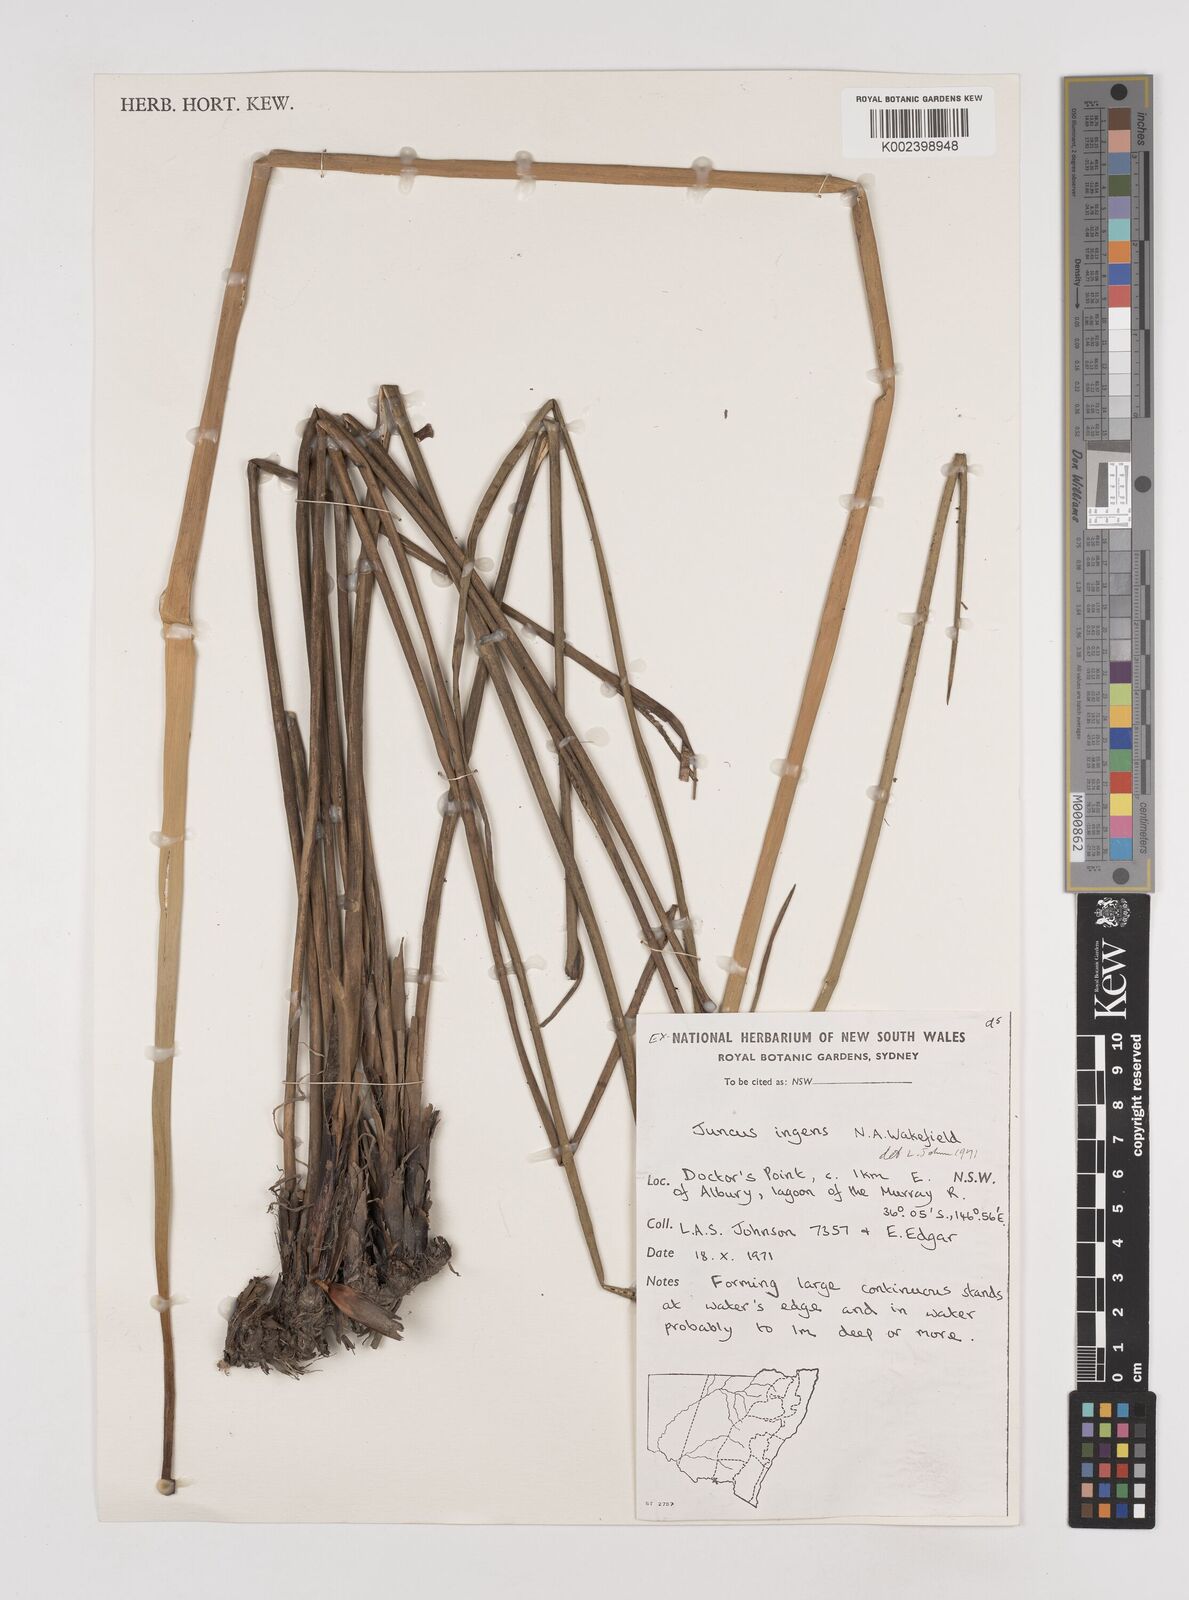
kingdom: Plantae
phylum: Tracheophyta
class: Liliopsida
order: Poales
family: Juncaceae
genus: Juncus
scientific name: Juncus
